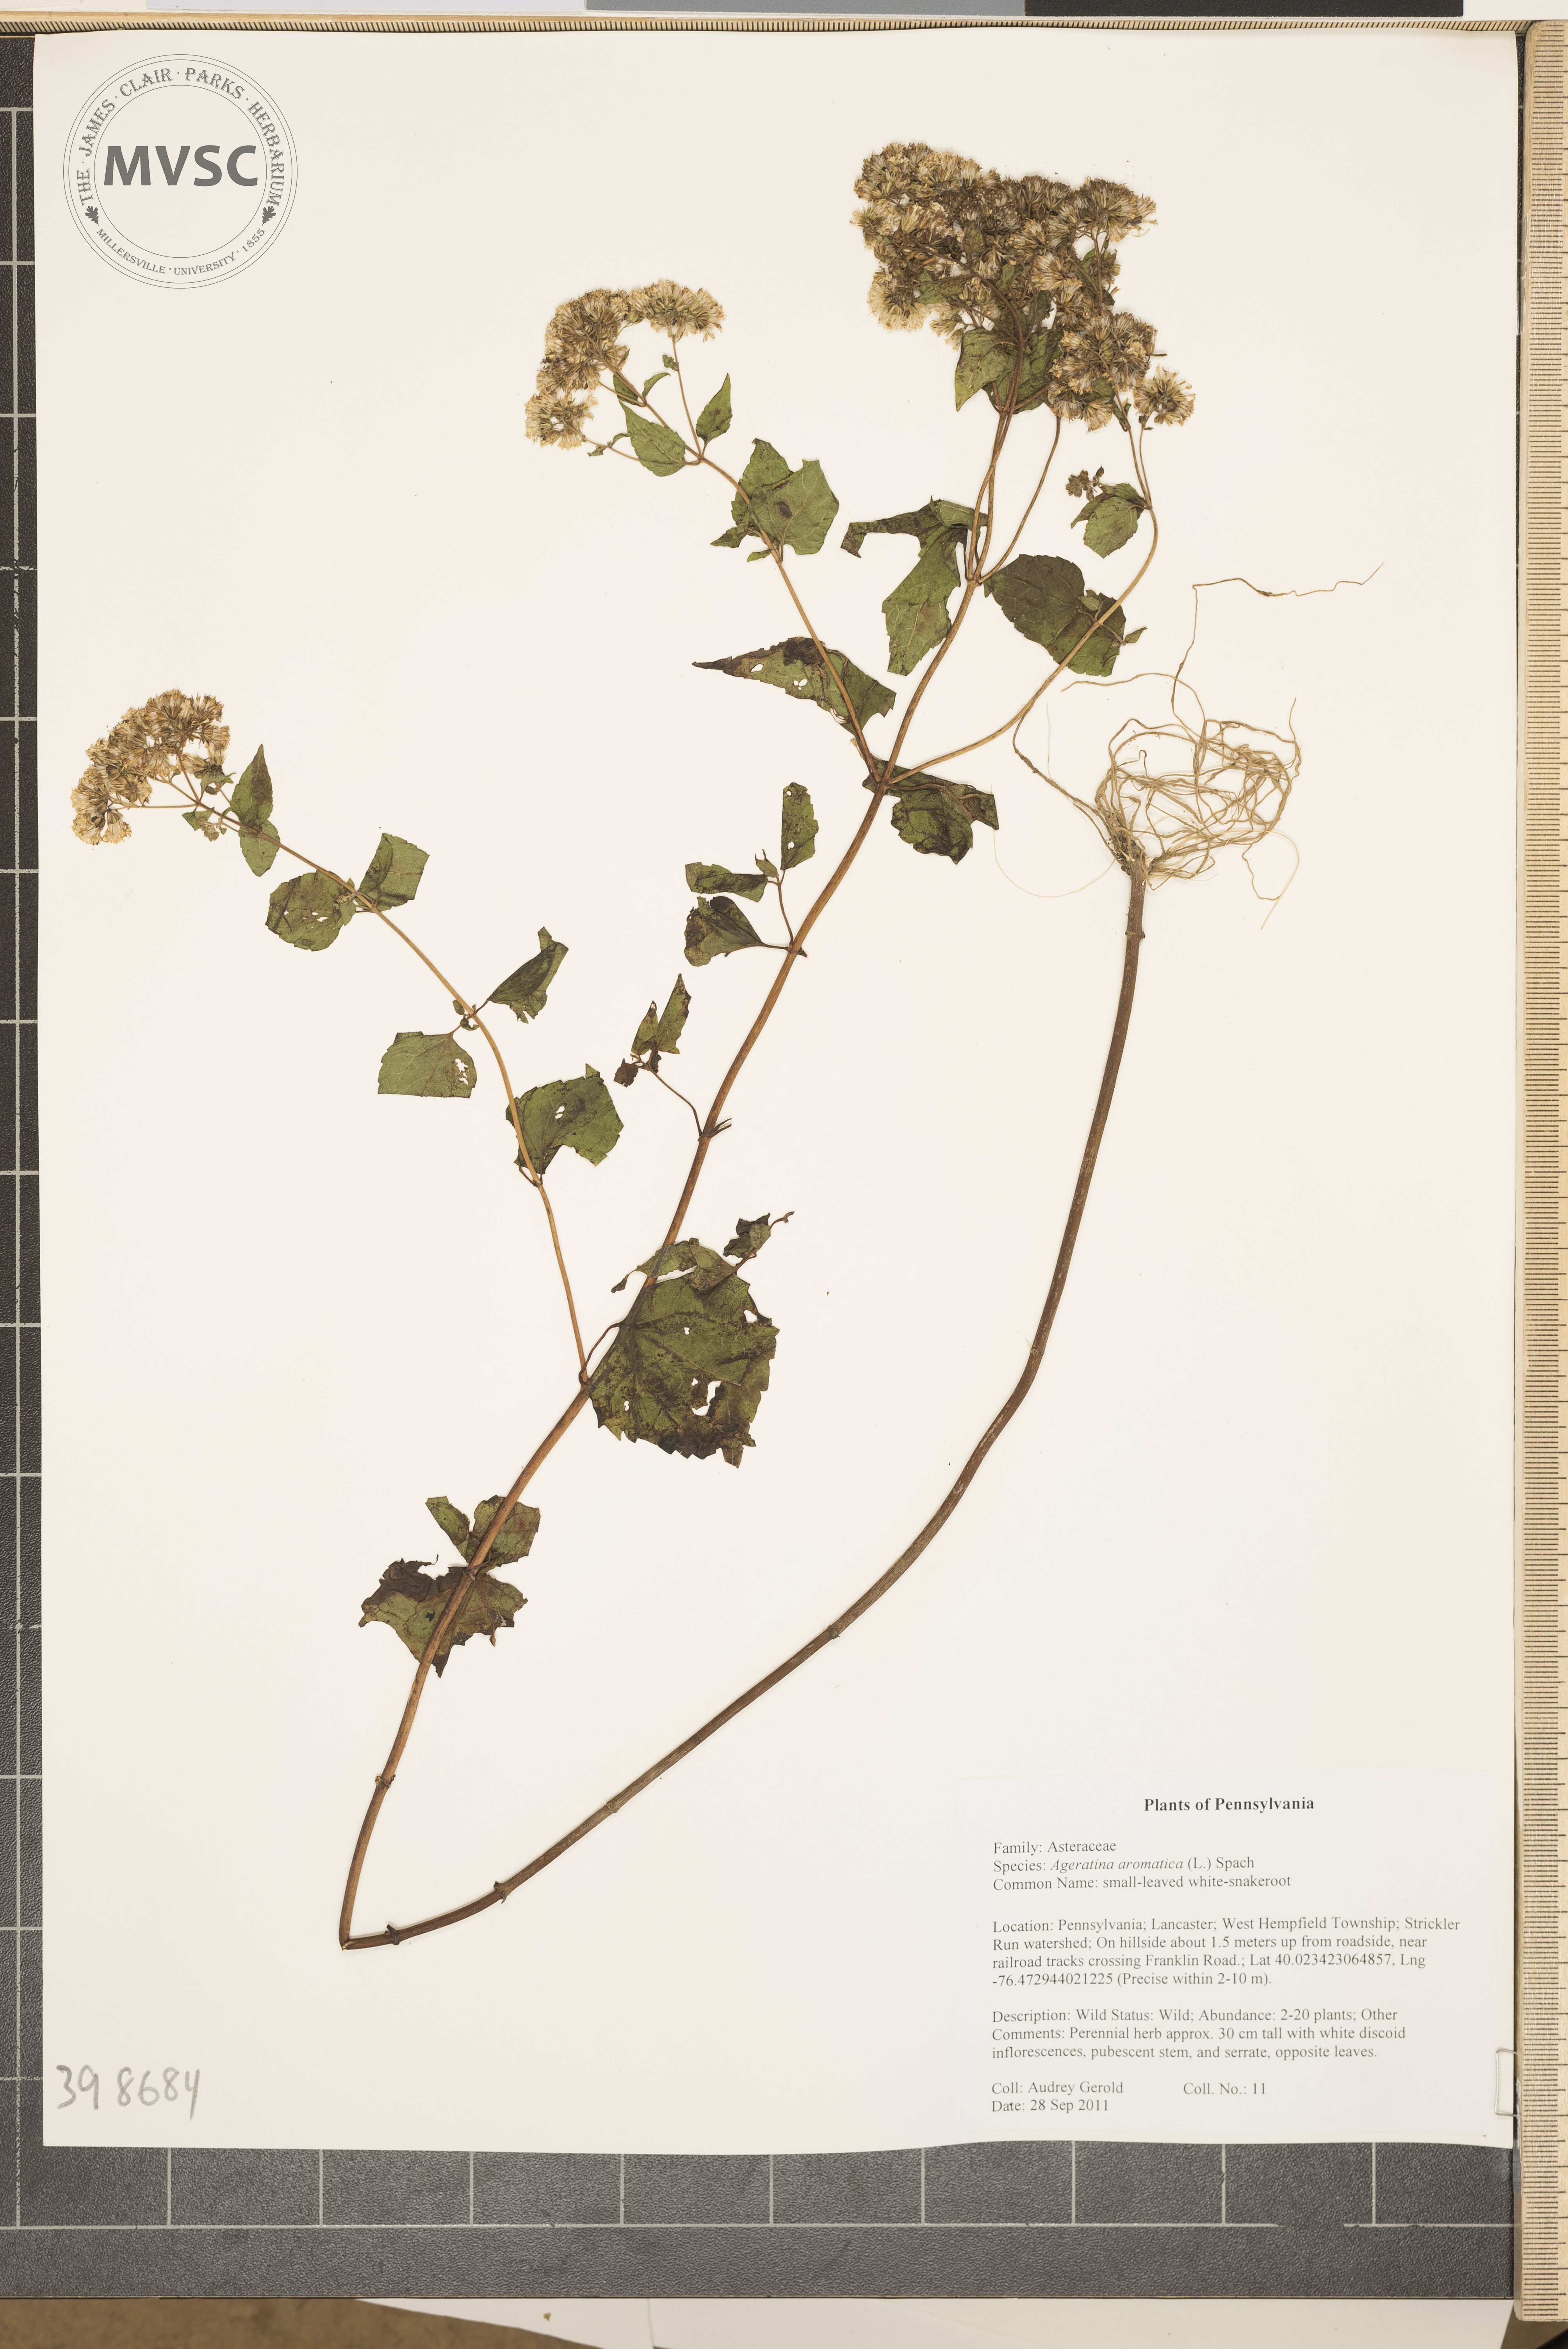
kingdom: Plantae
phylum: Tracheophyta
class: Magnoliopsida
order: Asterales
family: Asteraceae
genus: Ageratina
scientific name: Ageratina aromatica
